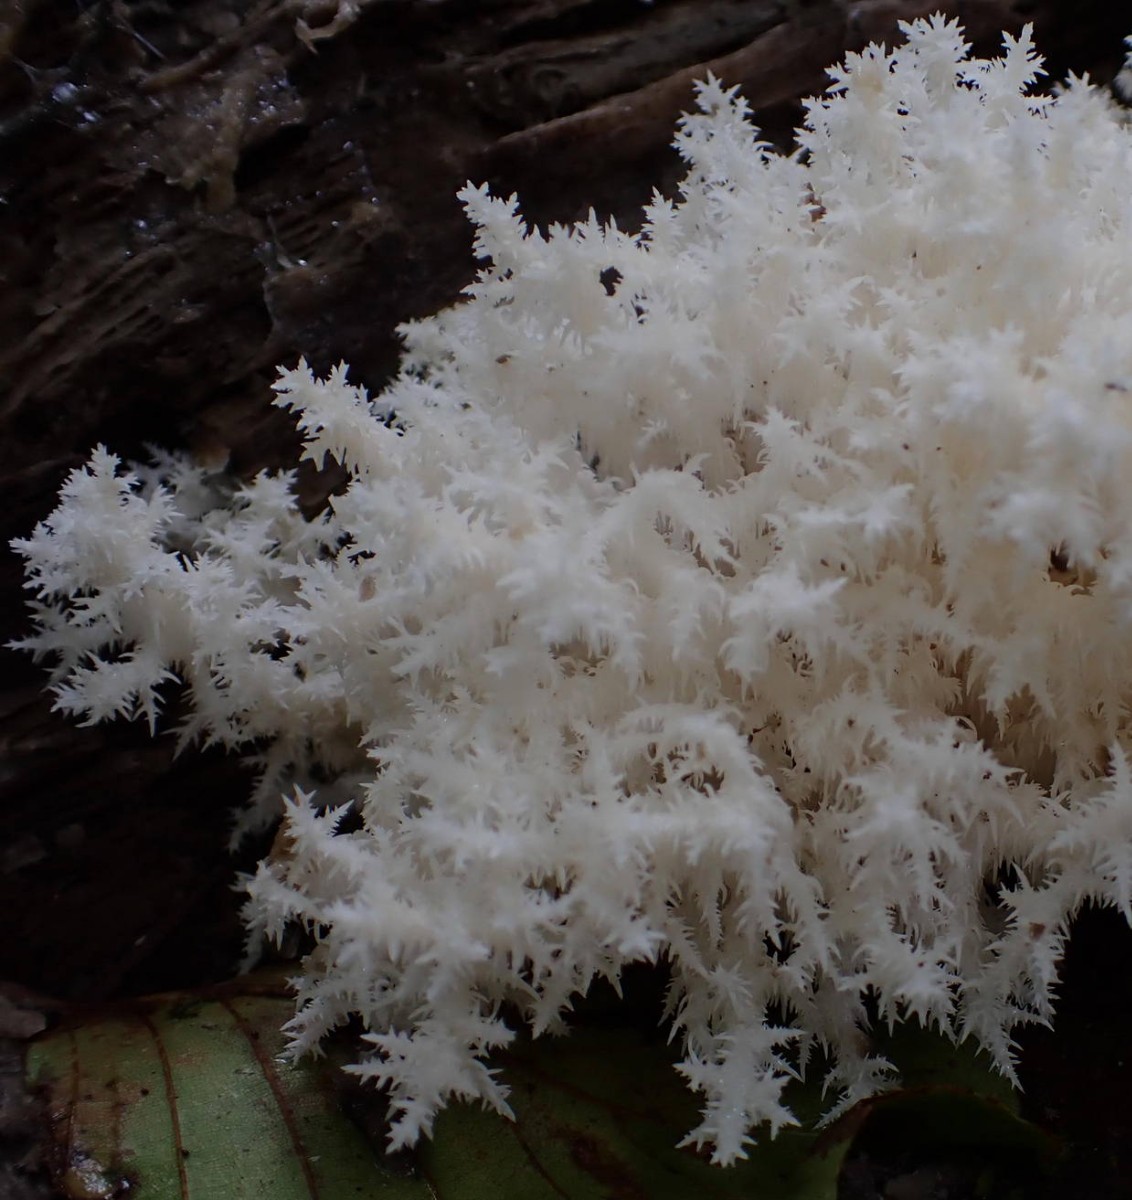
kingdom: Fungi
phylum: Basidiomycota
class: Agaricomycetes
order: Russulales
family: Hericiaceae
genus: Hericium
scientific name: Hericium coralloides
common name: koralpigsvamp
